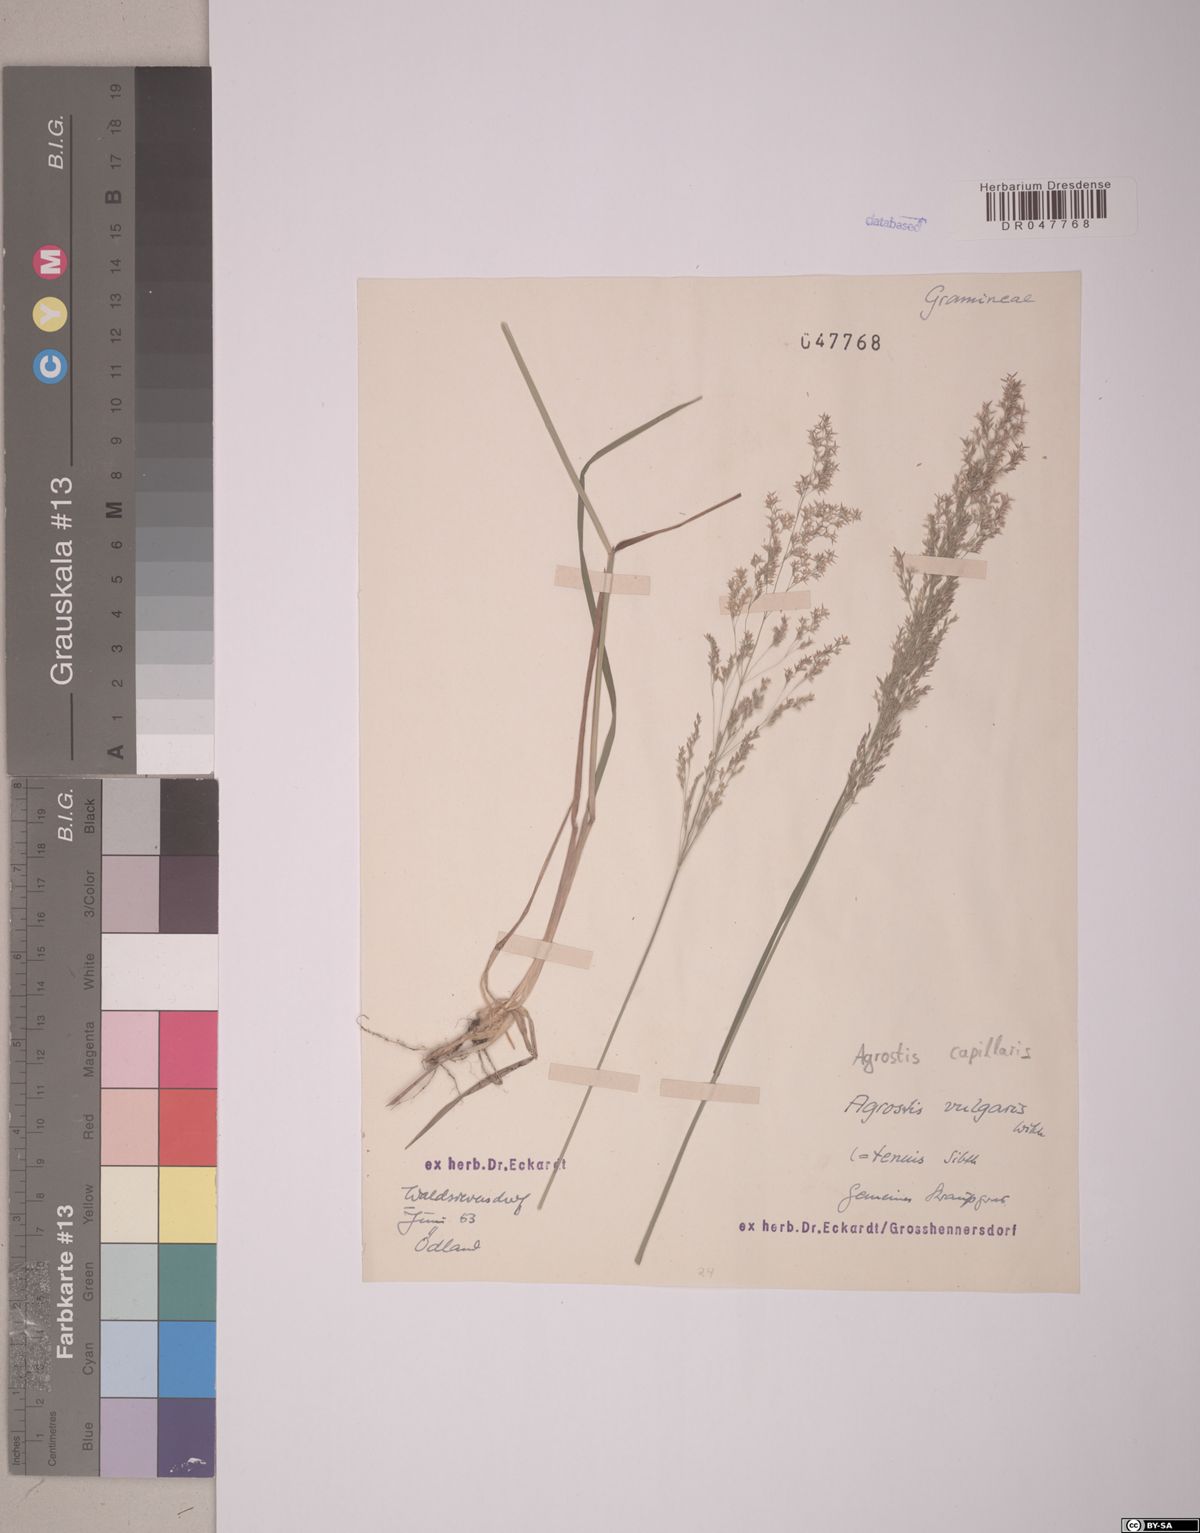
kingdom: Plantae
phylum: Tracheophyta
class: Liliopsida
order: Poales
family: Poaceae
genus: Agrostis
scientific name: Agrostis capillaris
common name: Colonial bentgrass
